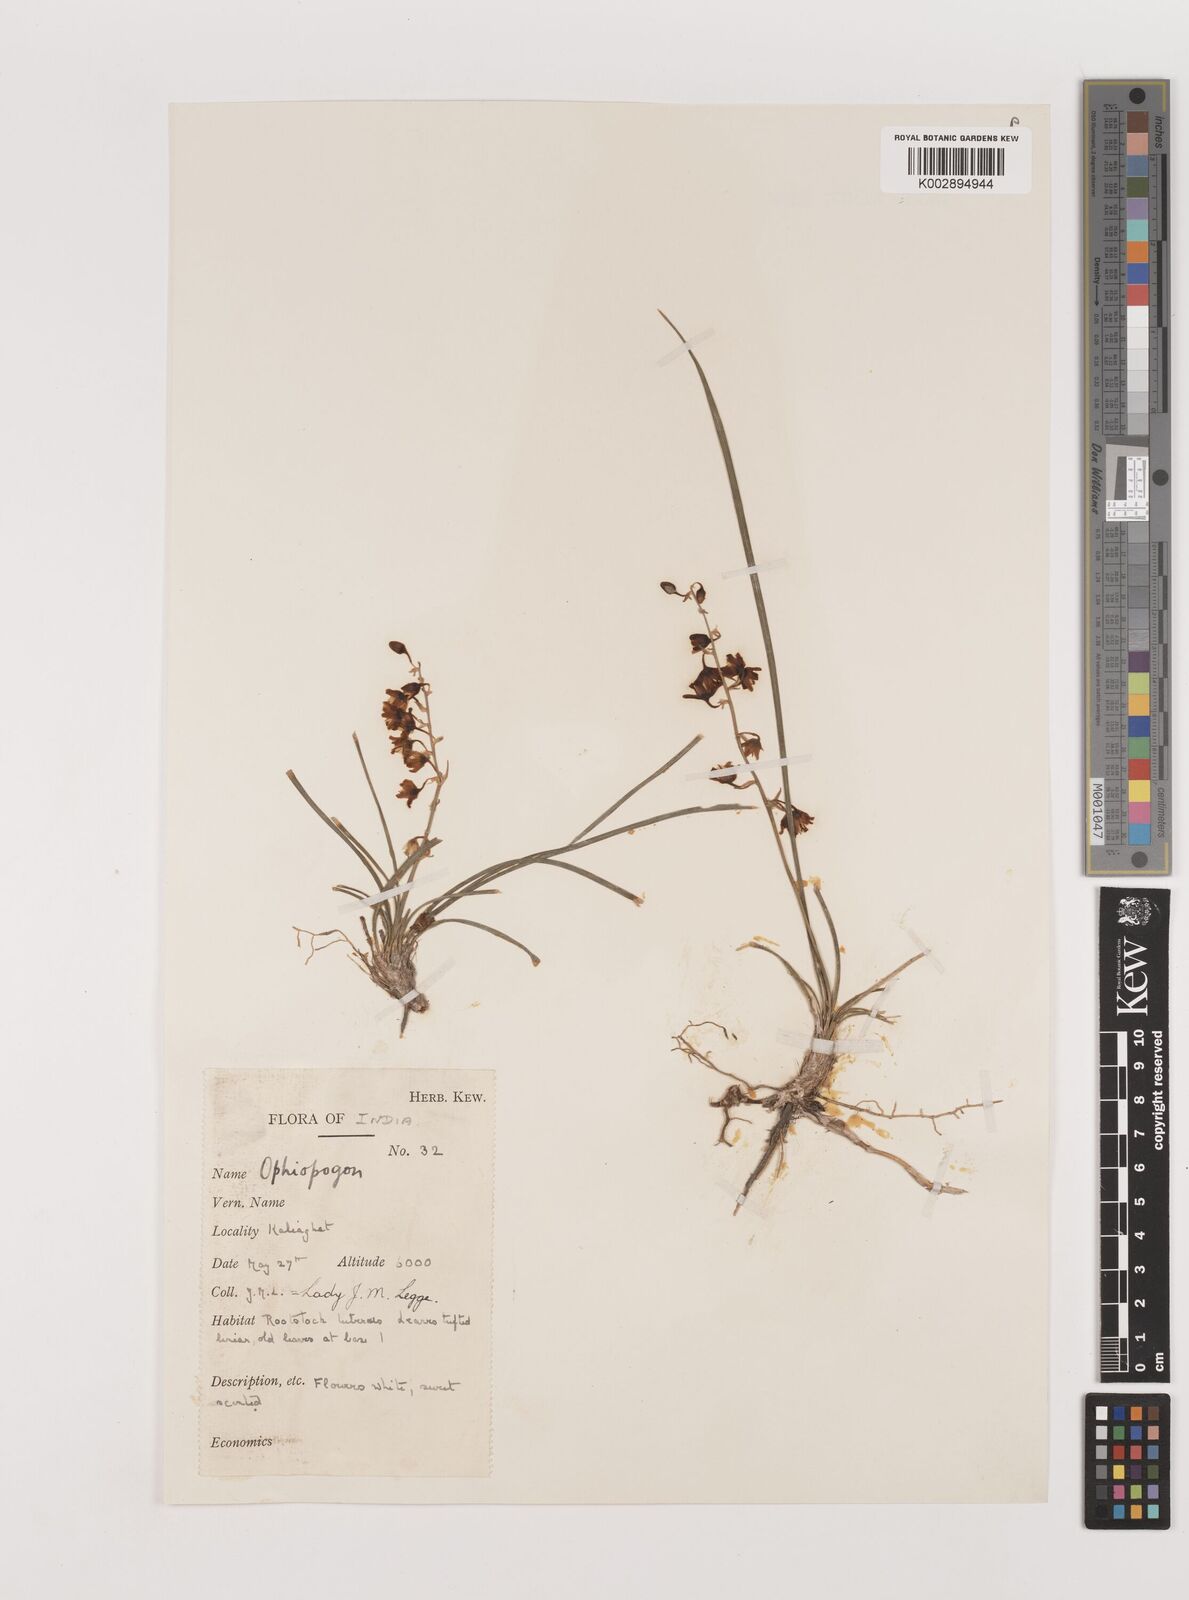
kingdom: Plantae
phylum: Tracheophyta
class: Liliopsida
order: Asparagales
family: Asparagaceae
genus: Ophiopogon
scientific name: Ophiopogon intermedius
